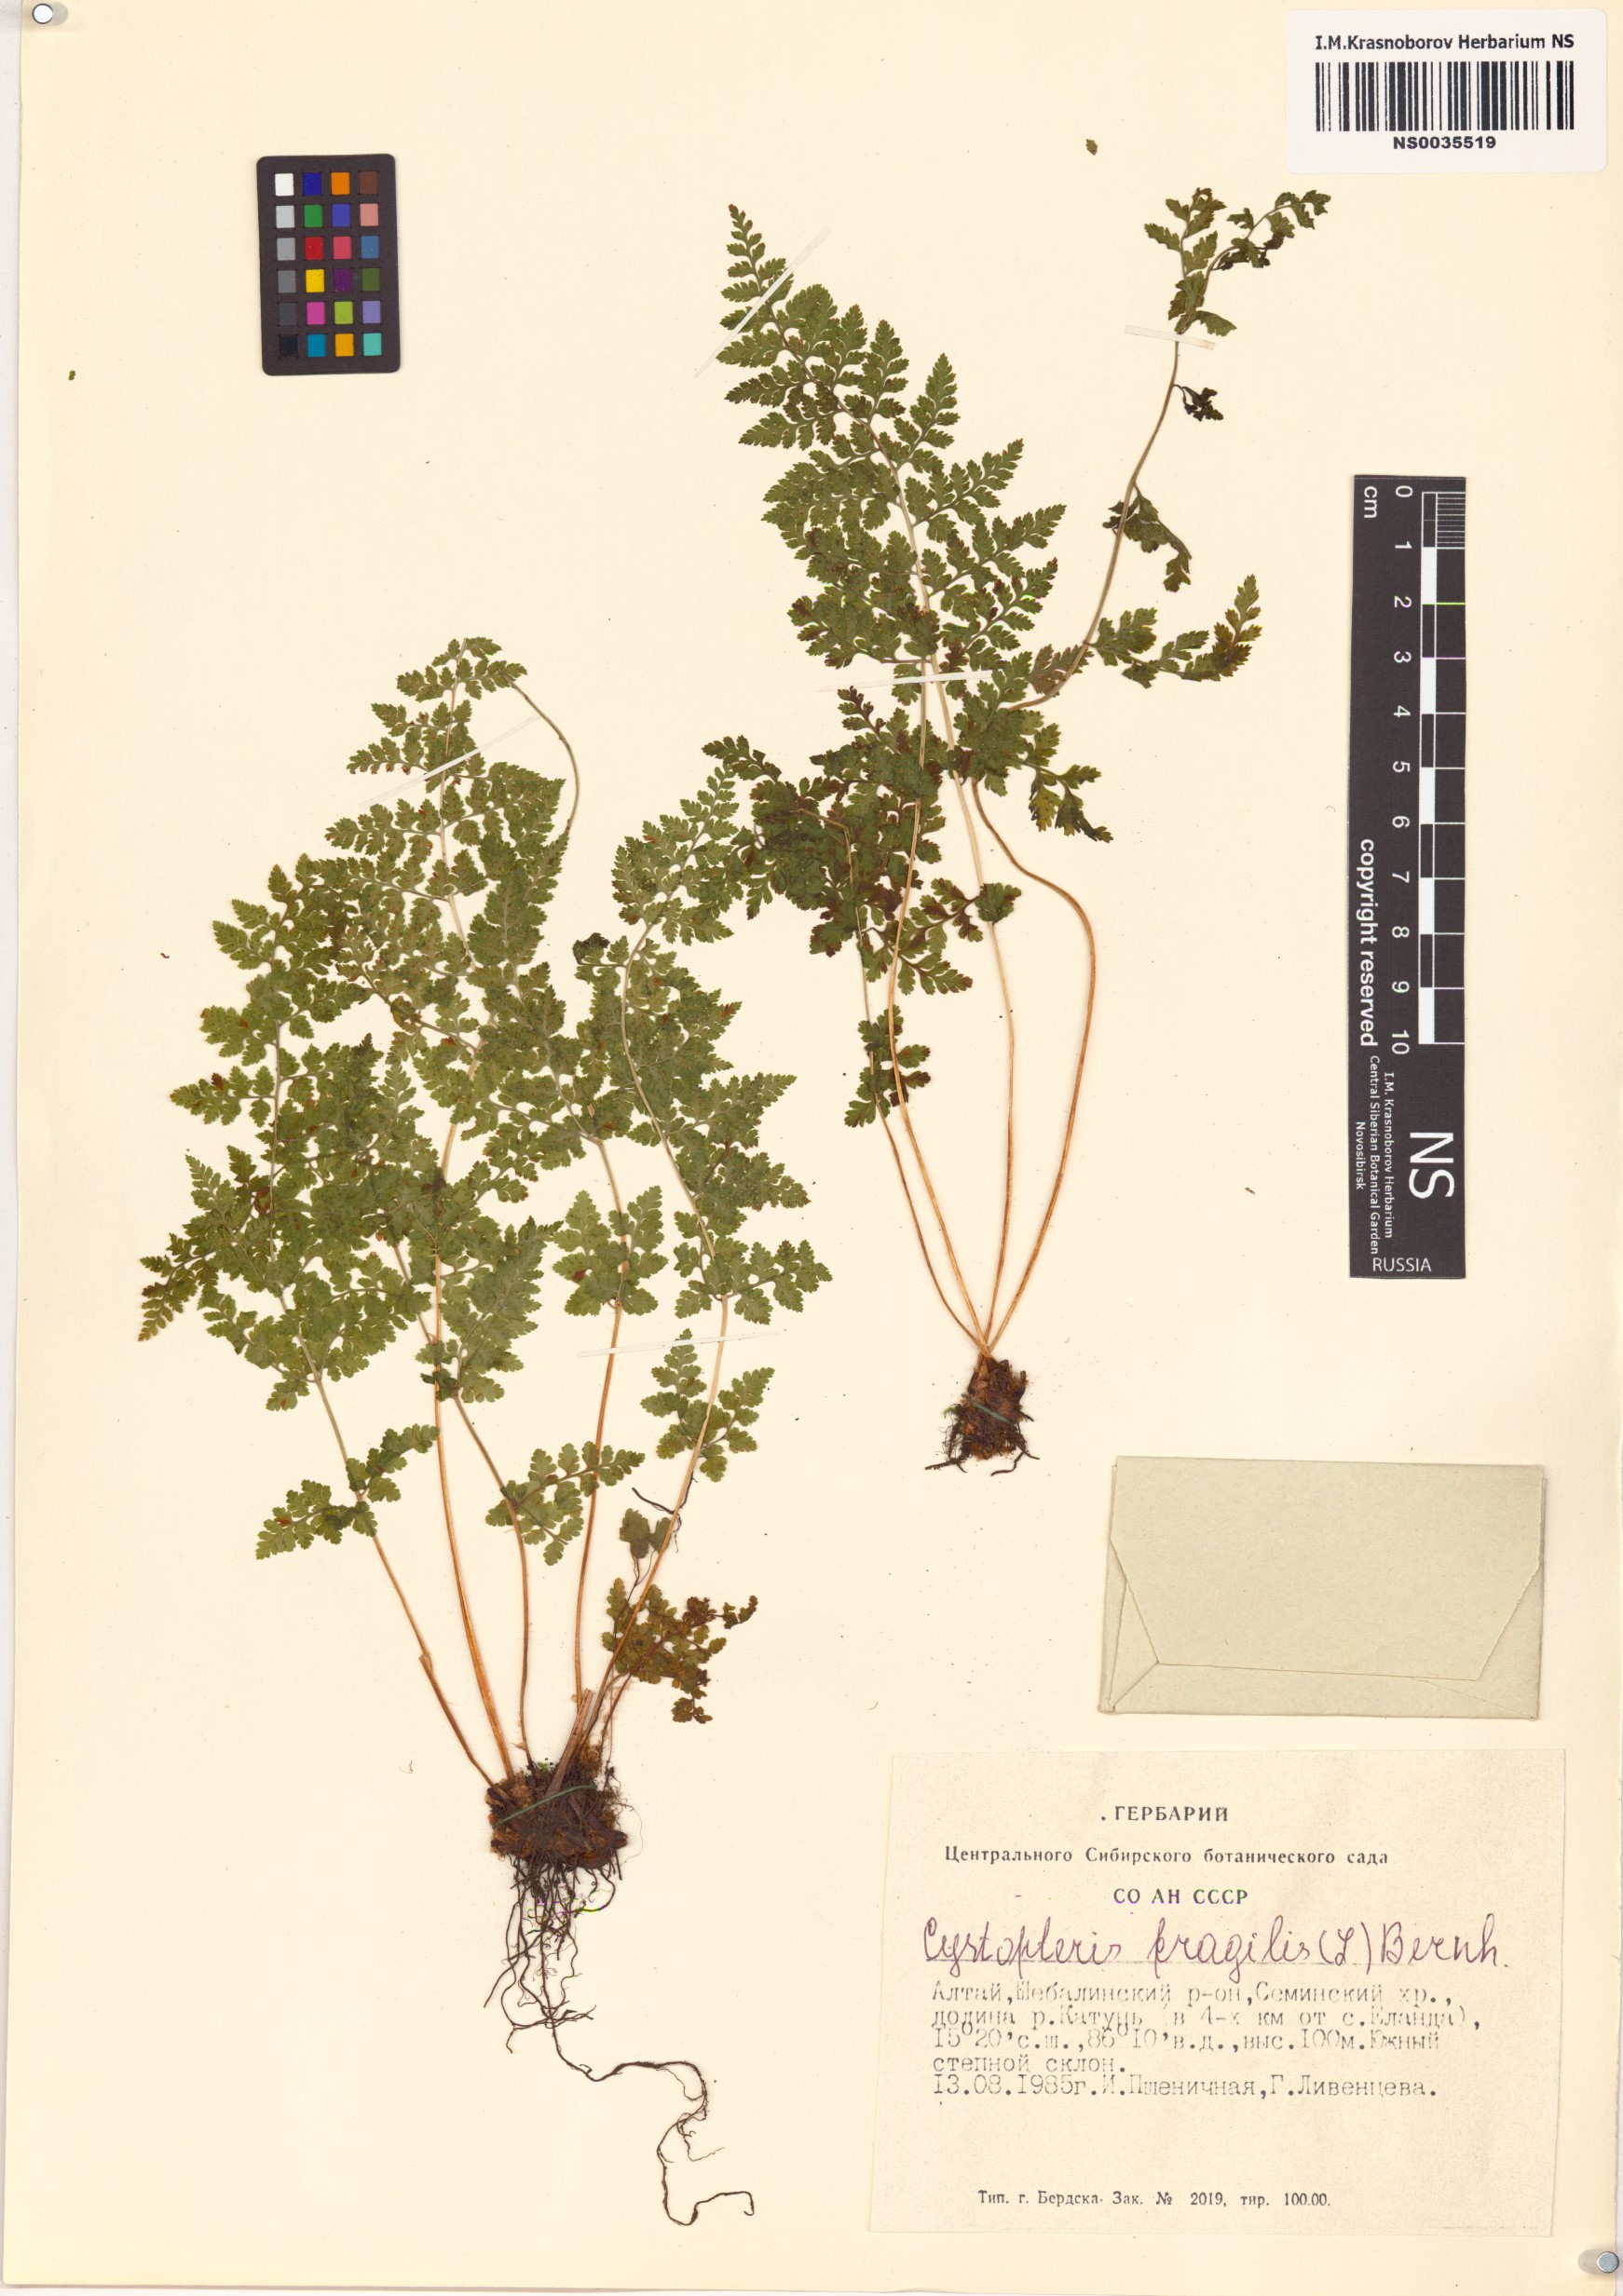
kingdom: Plantae
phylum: Tracheophyta
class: Polypodiopsida
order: Polypodiales
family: Cystopteridaceae
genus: Cystopteris
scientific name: Cystopteris fragilis
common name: Brittle bladder fern
